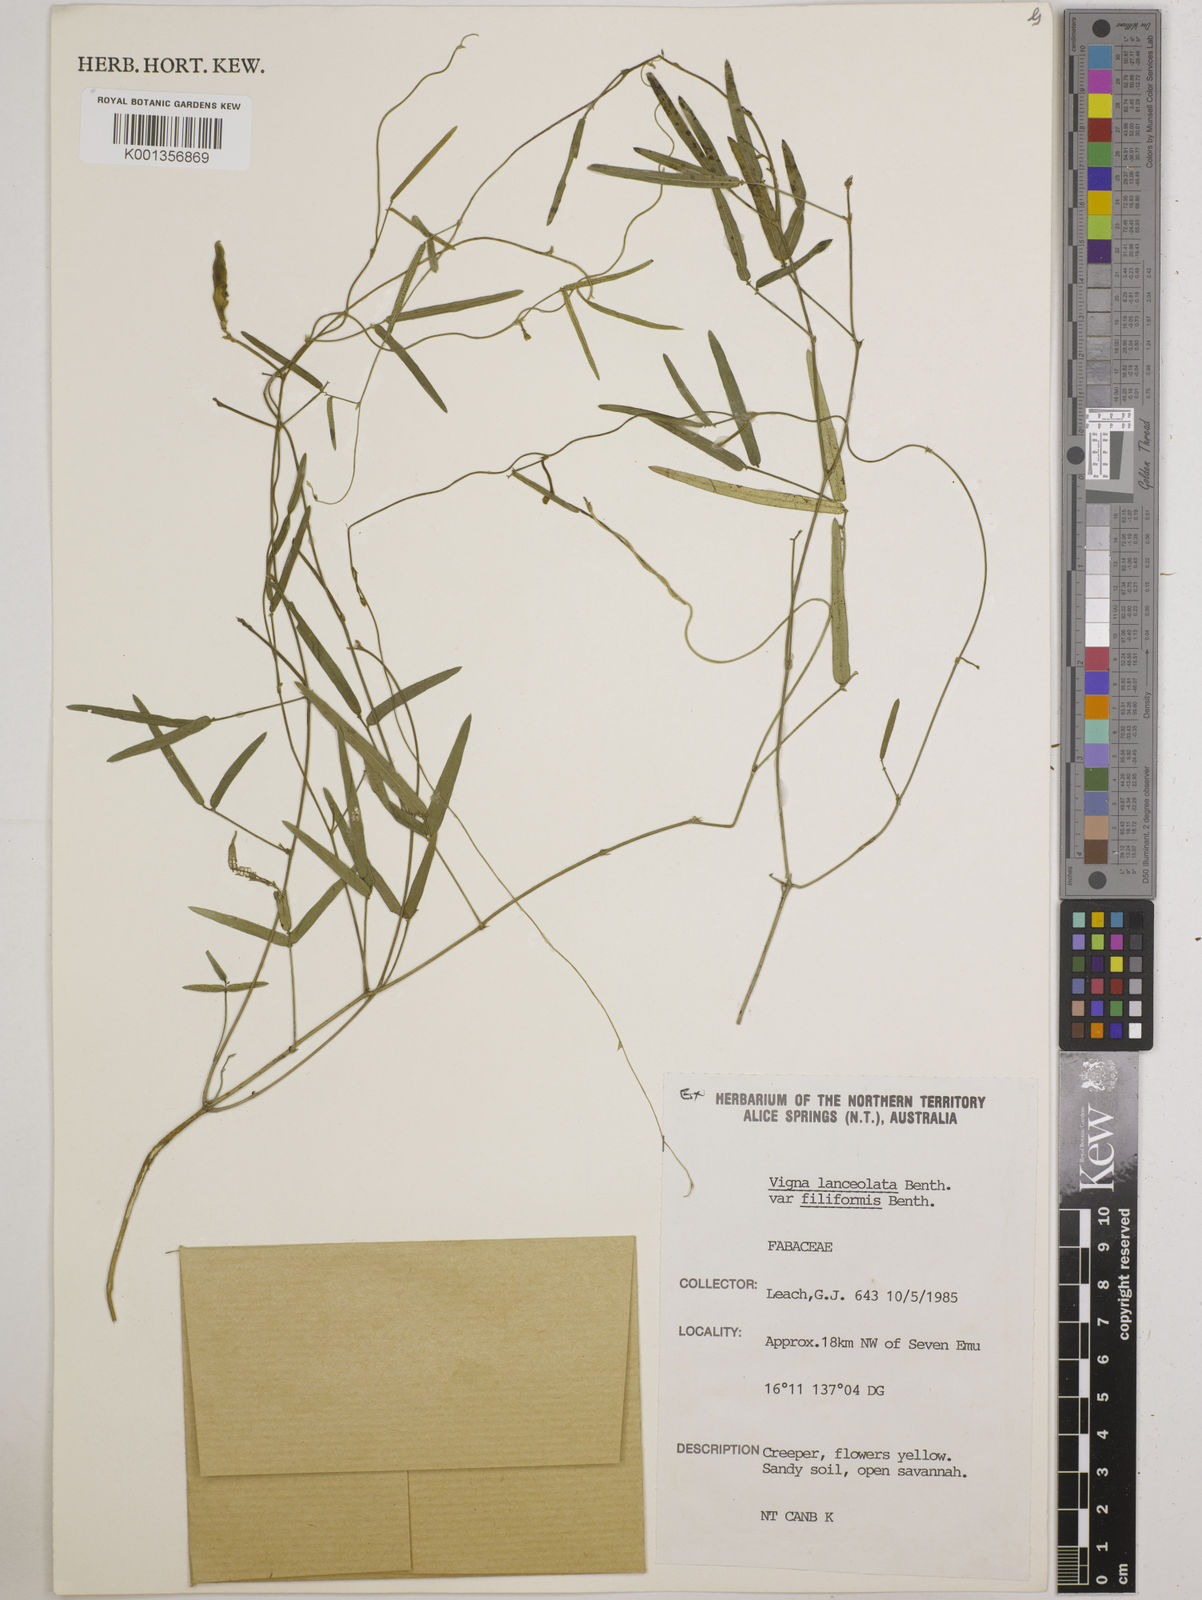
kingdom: Plantae
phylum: Tracheophyta
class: Magnoliopsida
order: Fabales
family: Fabaceae
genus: Vigna
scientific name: Vigna lanceolata
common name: Maloga-bean
